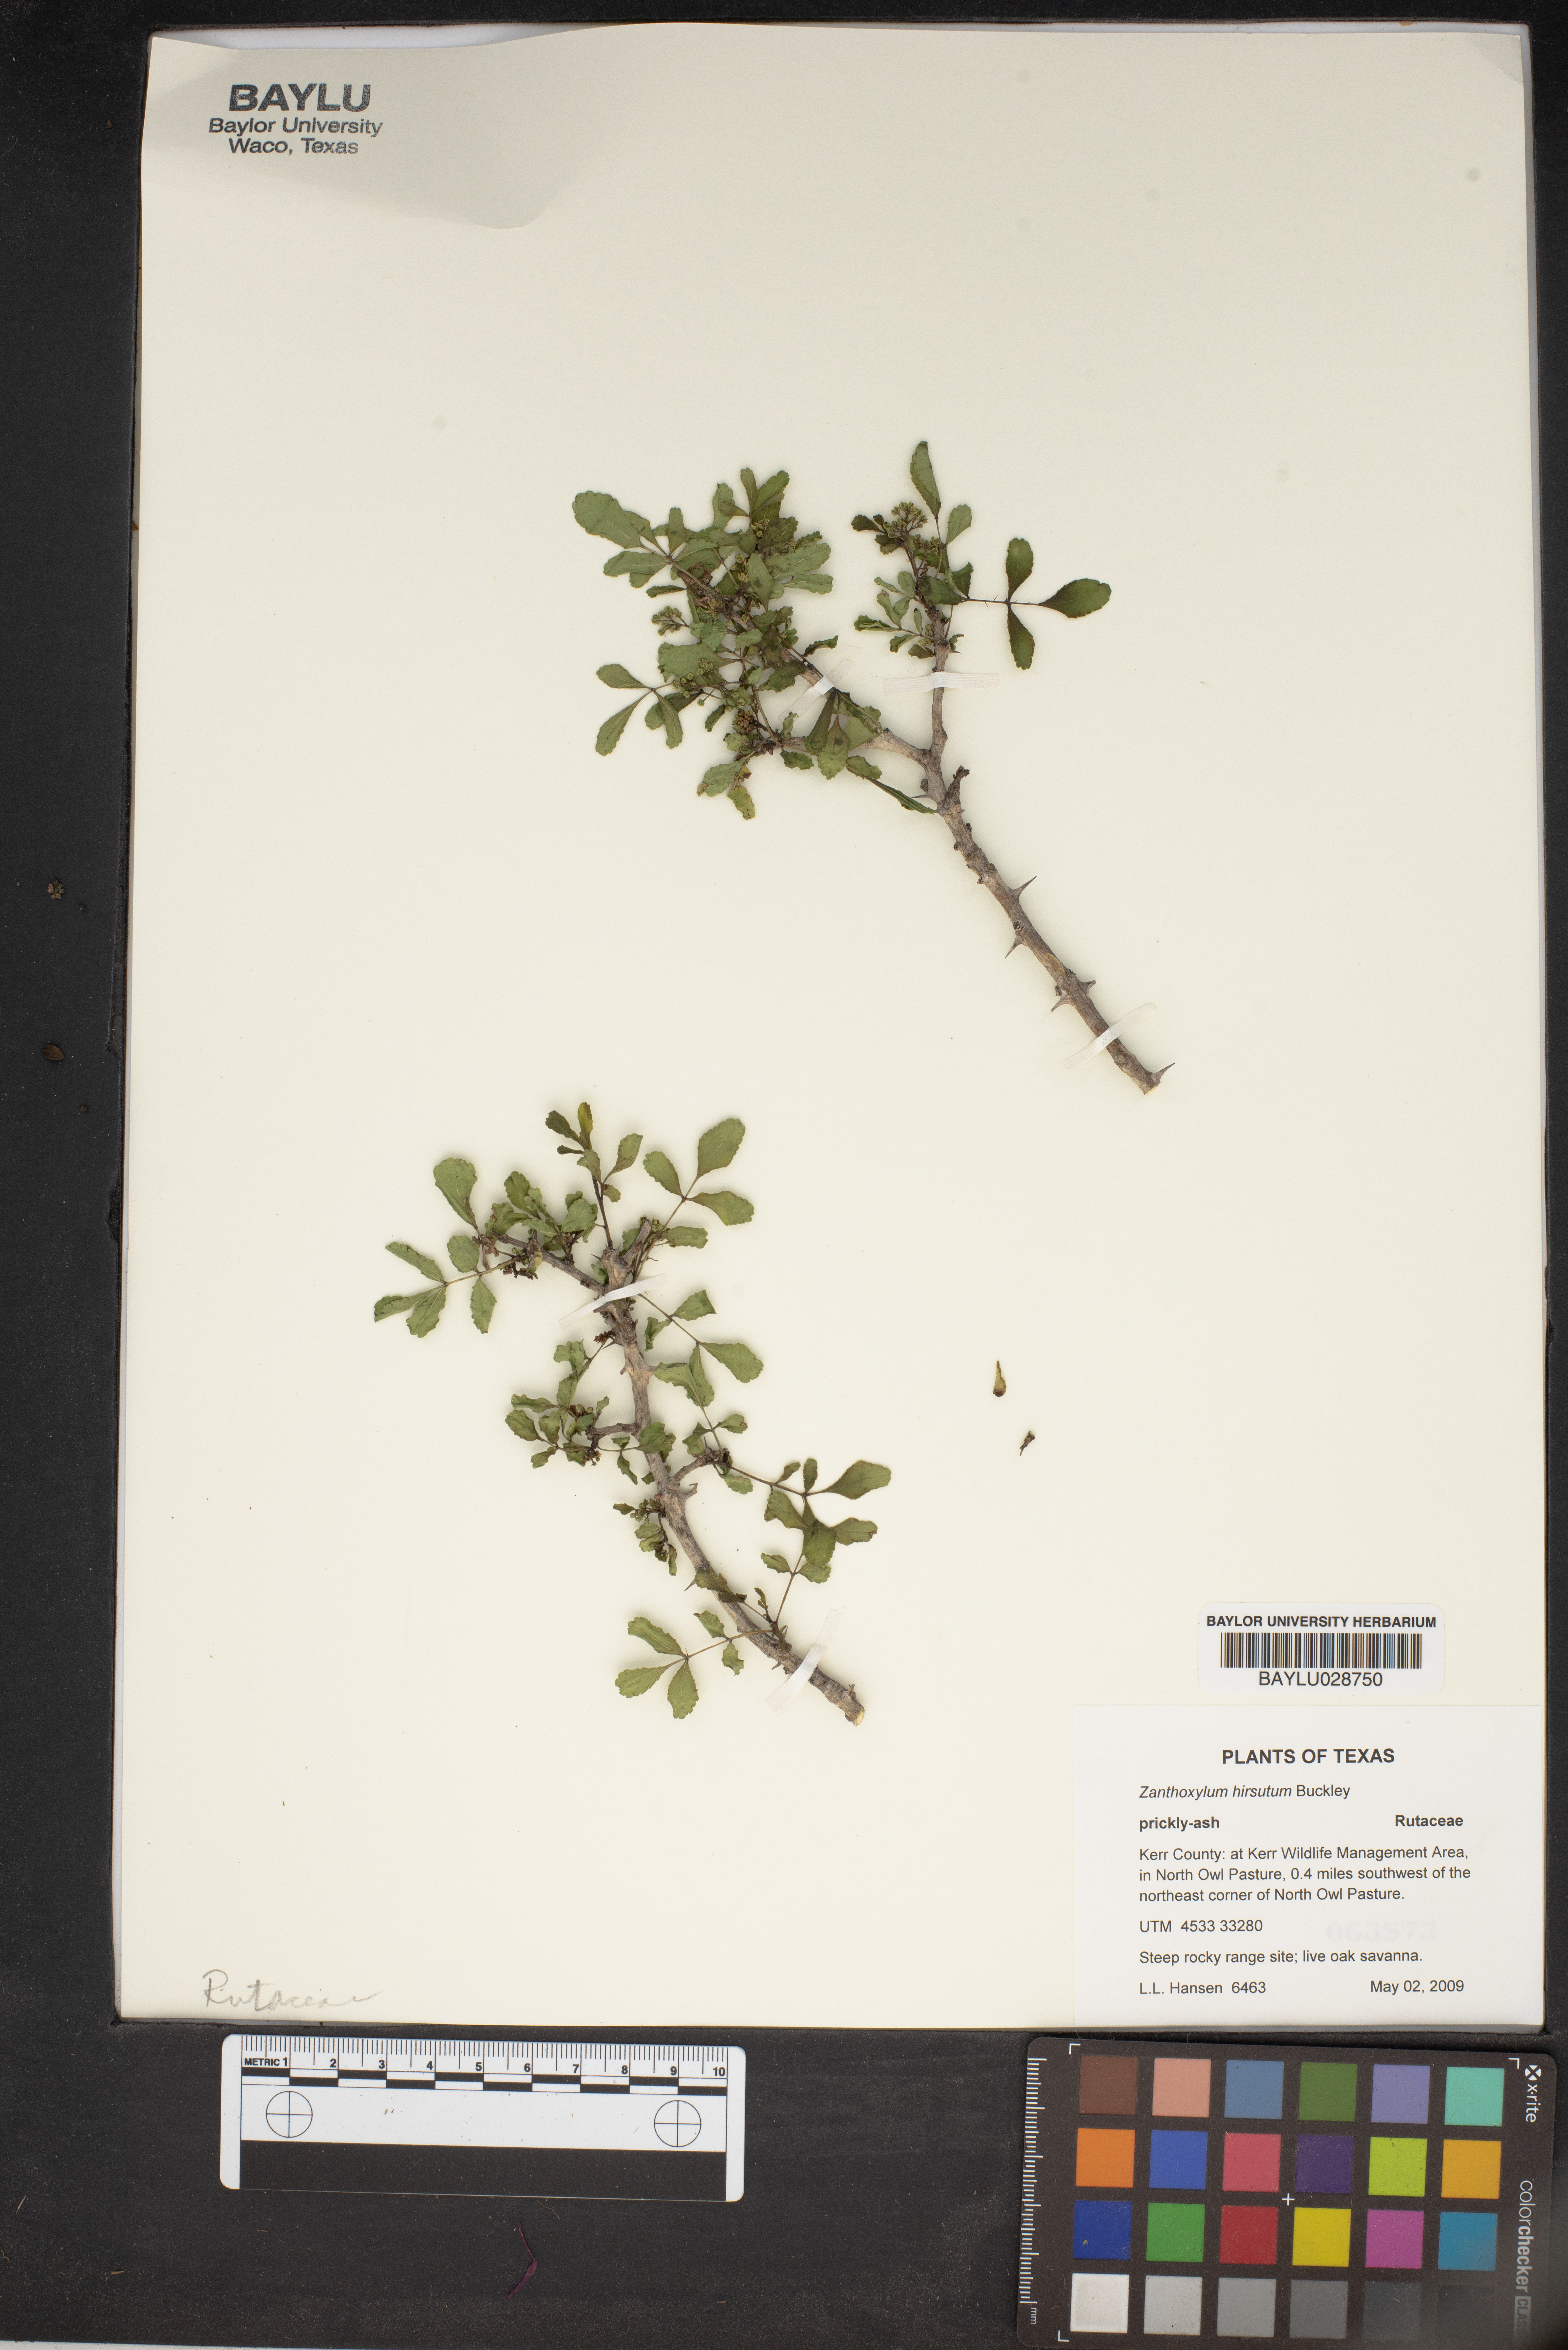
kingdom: Plantae
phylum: Tracheophyta
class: Magnoliopsida
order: Sapindales
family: Rutaceae
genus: Zanthoxylum
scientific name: Zanthoxylum clava-herculis
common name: Hercules'-club
